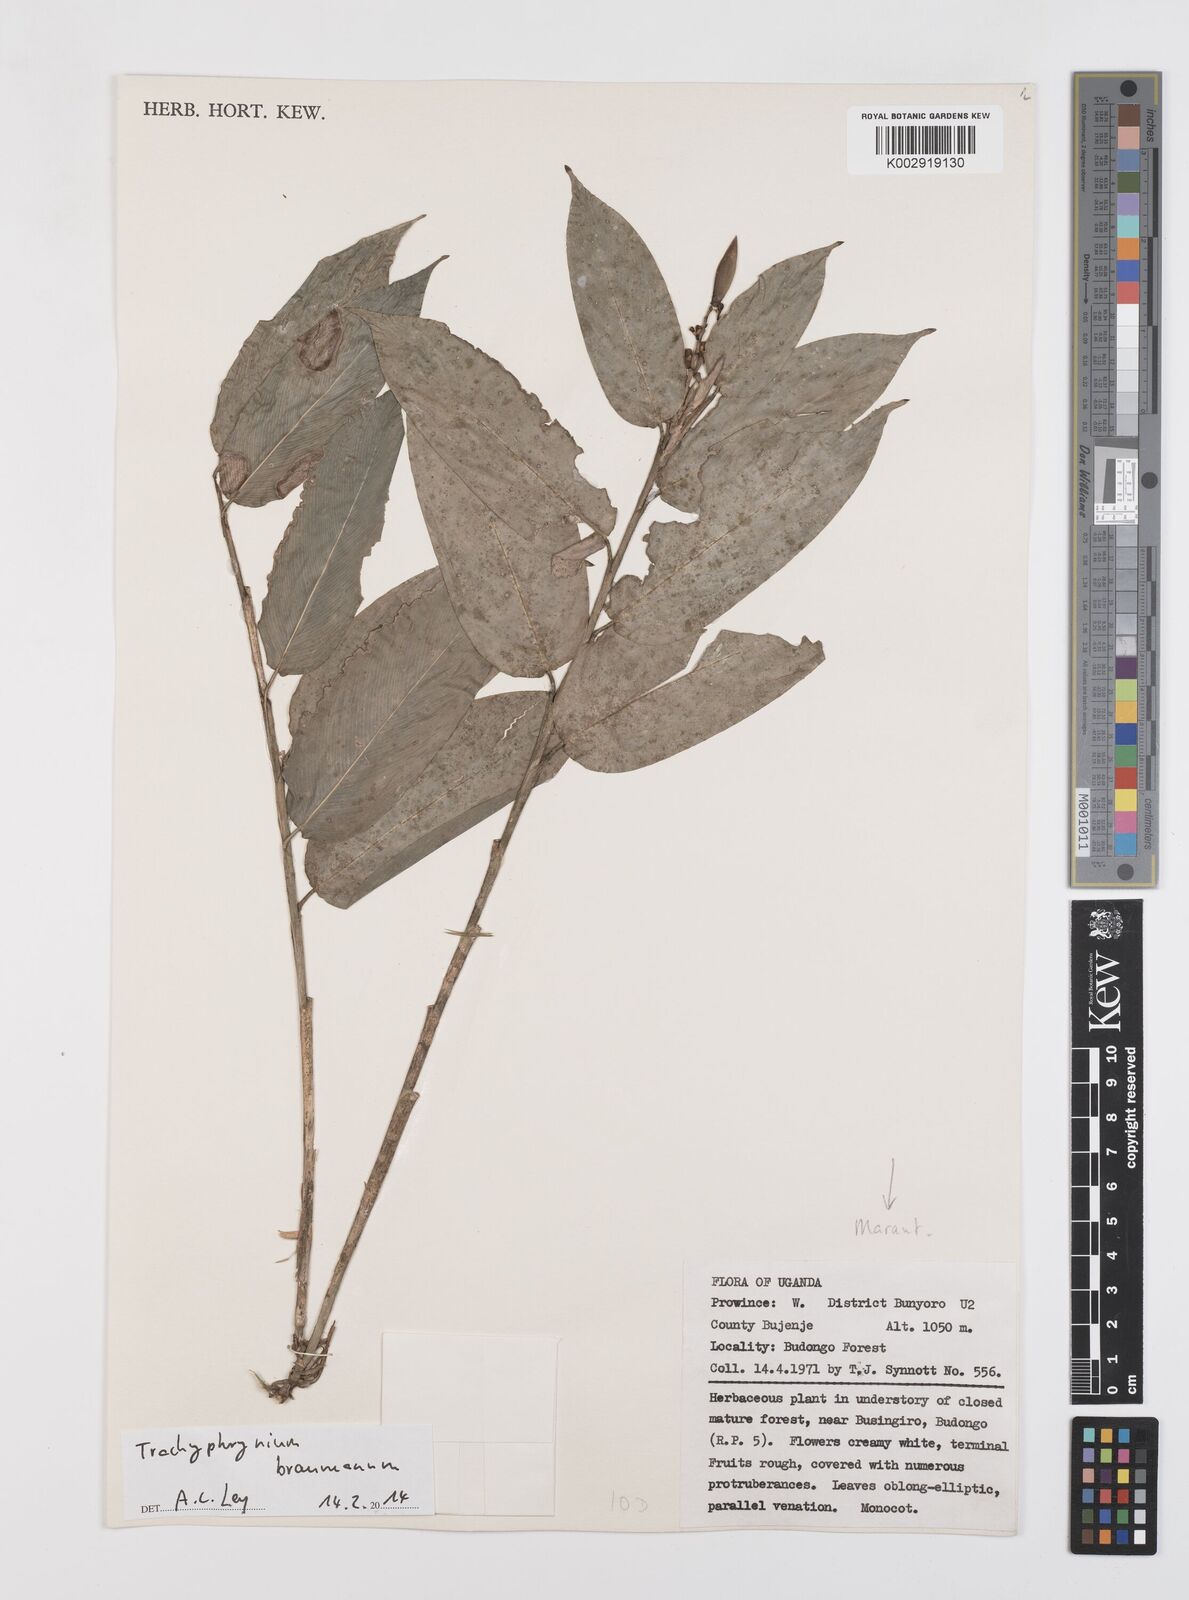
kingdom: Plantae
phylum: Tracheophyta
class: Liliopsida
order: Zingiberales
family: Marantaceae
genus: Trachyphrynium
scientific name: Trachyphrynium braunianum
